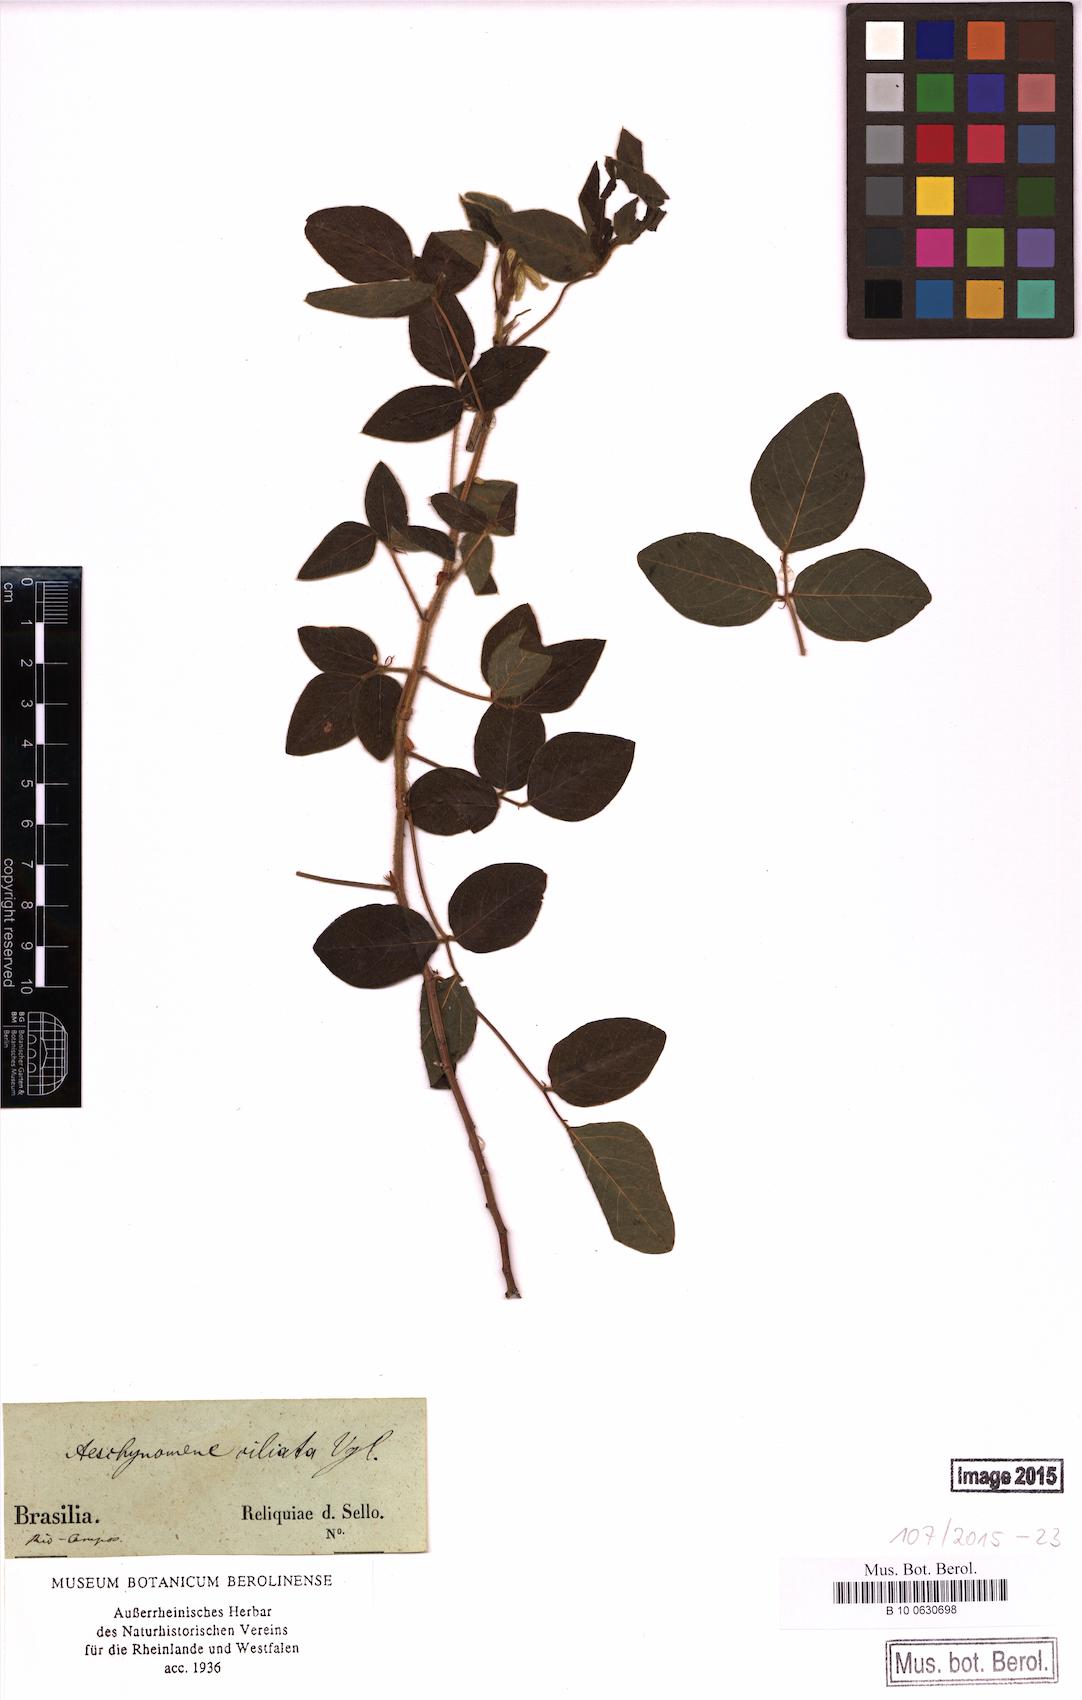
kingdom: Plantae
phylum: Tracheophyta
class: Magnoliopsida
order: Fabales
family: Fabaceae
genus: Aeschynomene
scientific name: Aeschynomene ciliata
